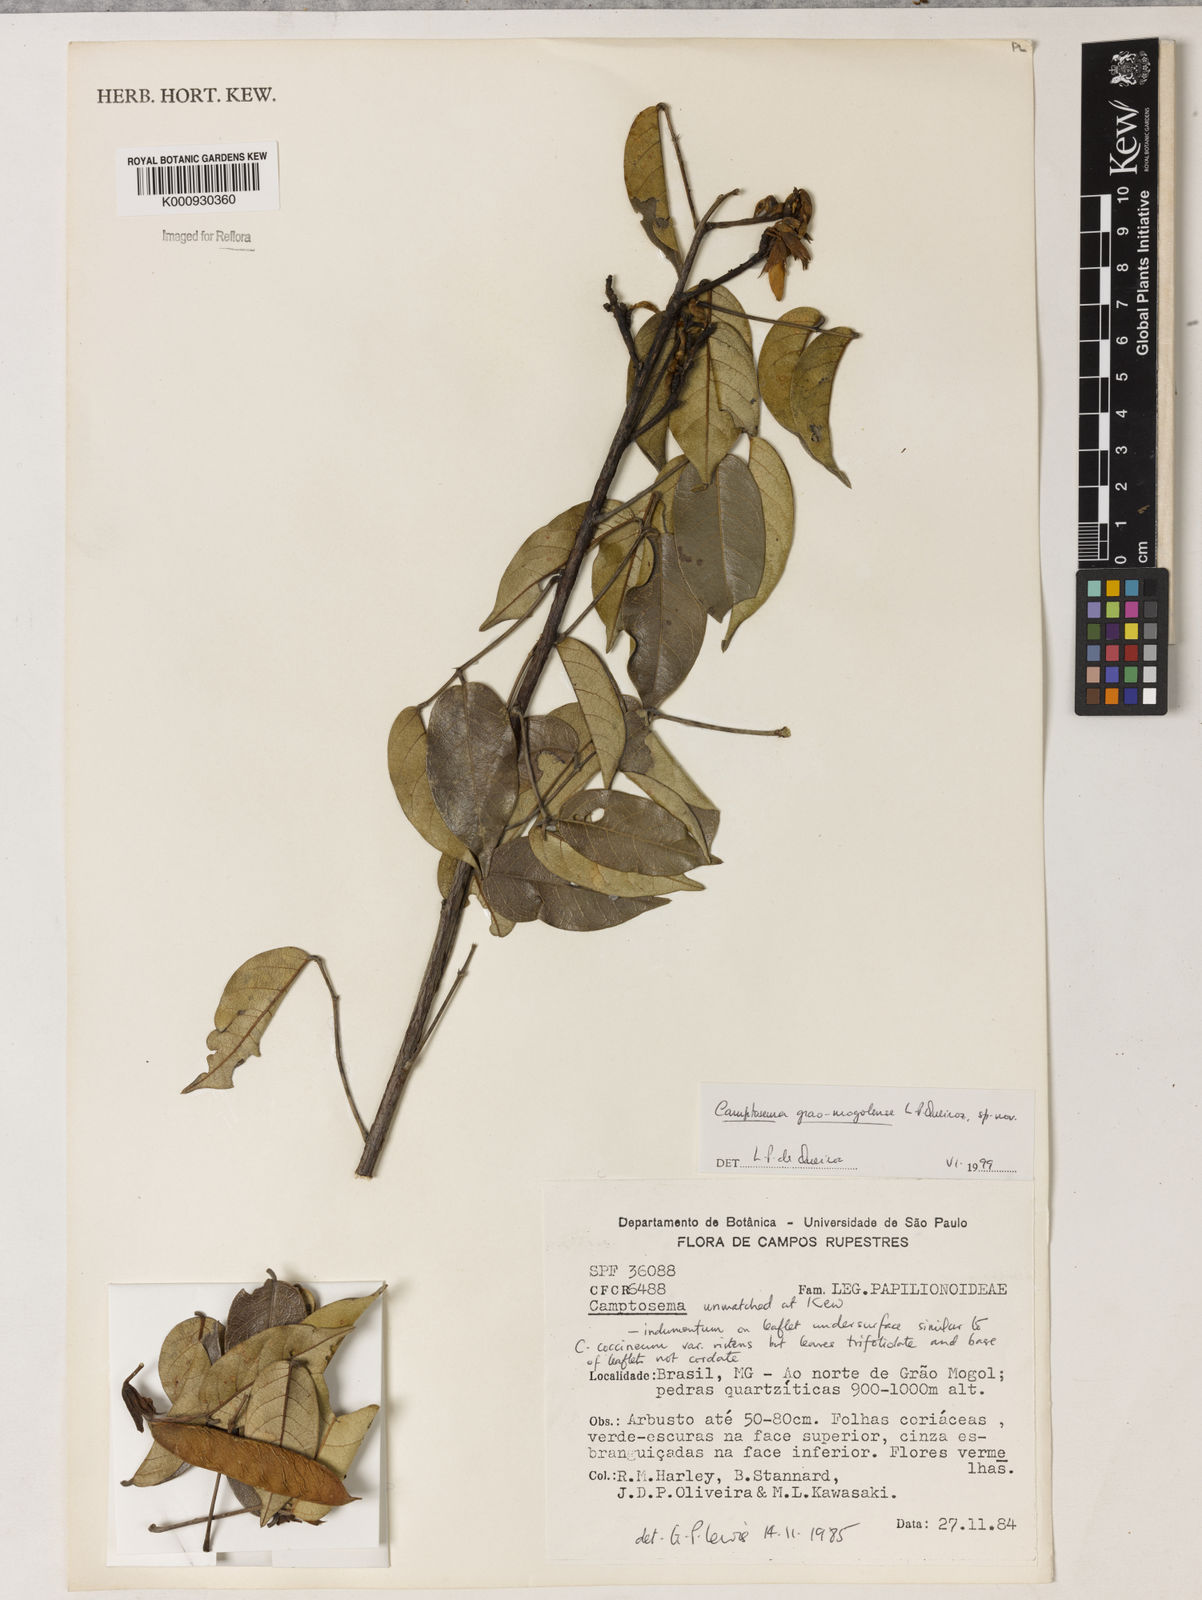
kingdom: Plantae
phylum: Tracheophyta
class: Magnoliopsida
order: Fabales
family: Fabaceae
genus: Camptosema
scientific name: Camptosema
